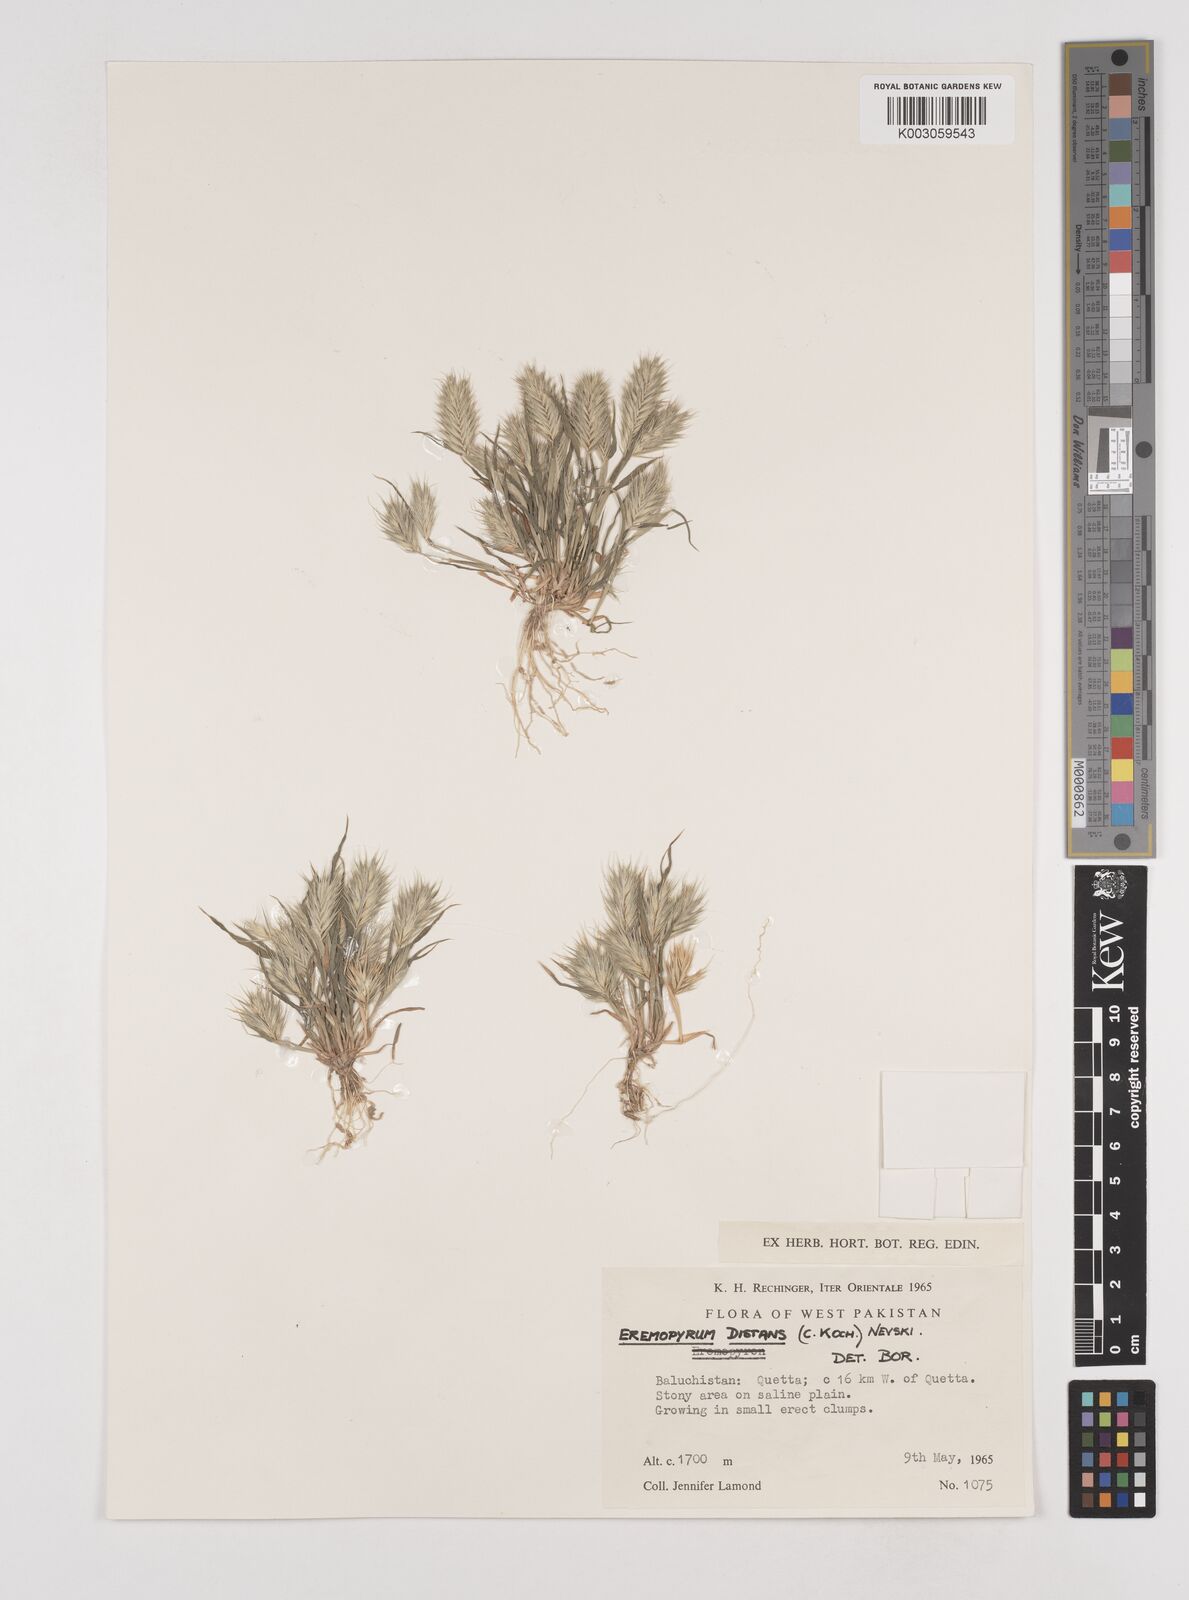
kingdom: Plantae
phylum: Tracheophyta
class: Liliopsida
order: Poales
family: Poaceae
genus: Eremopyrum
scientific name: Eremopyrum distans
